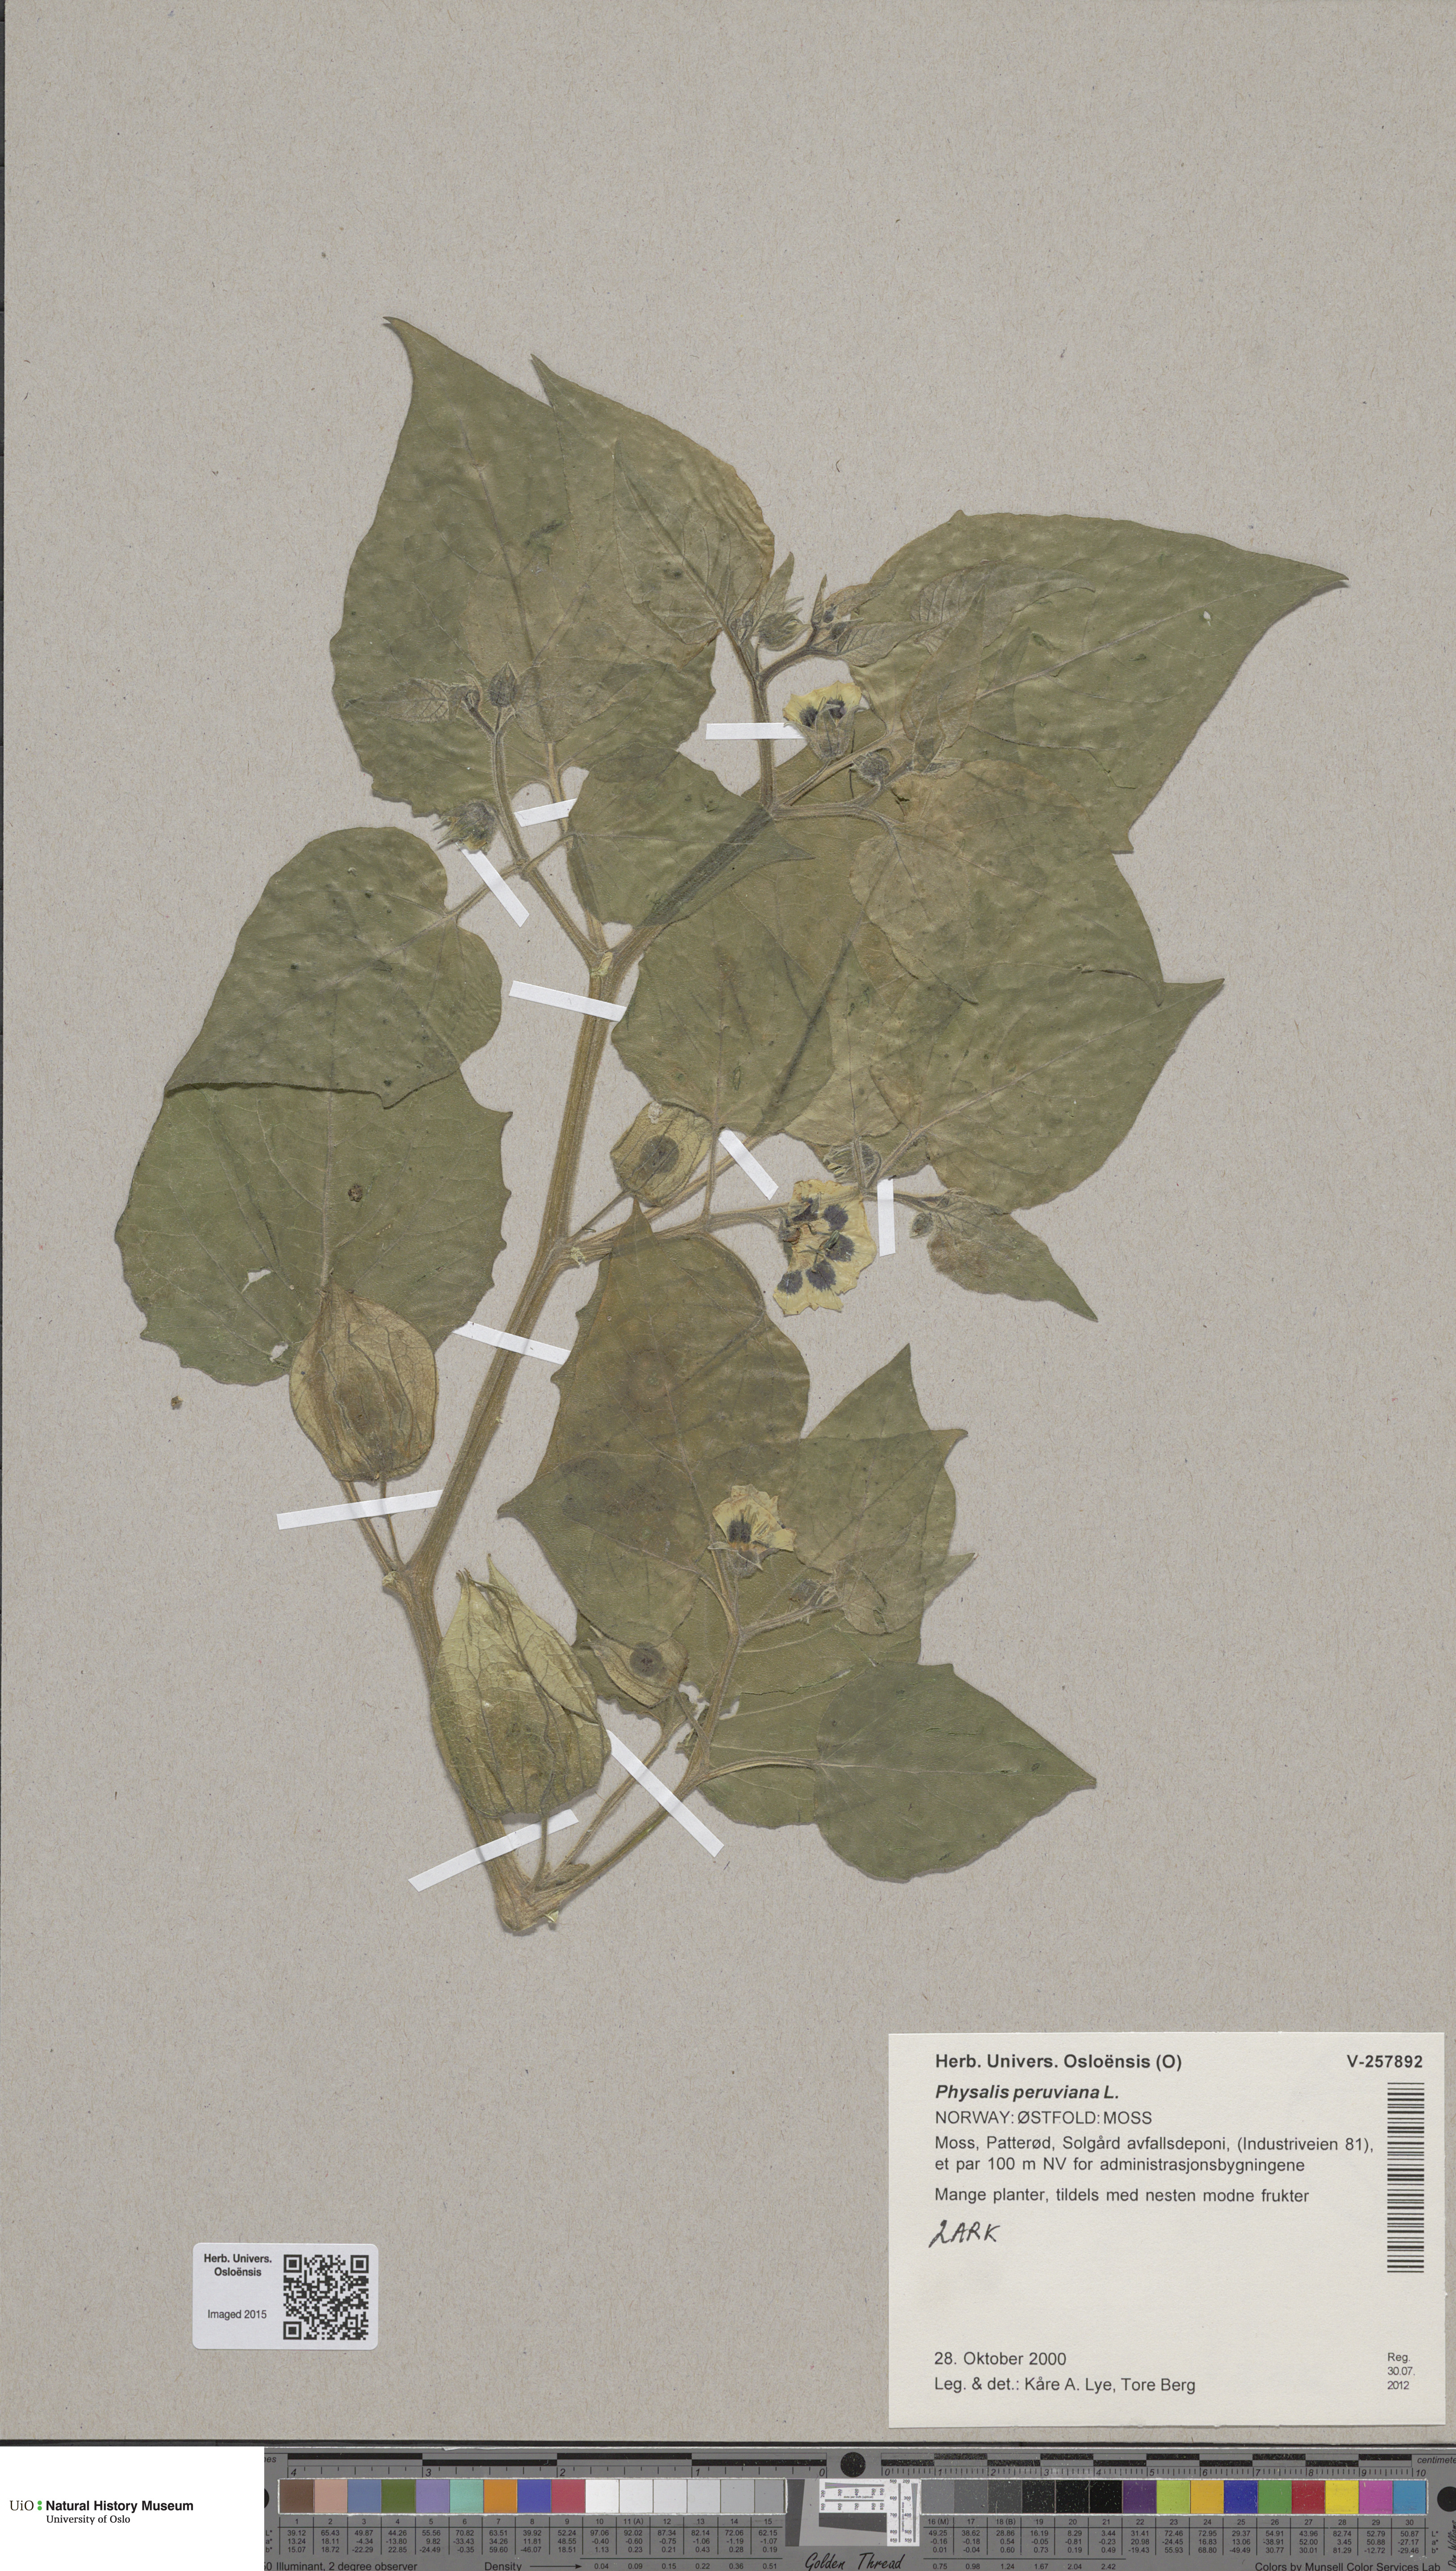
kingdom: Plantae
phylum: Tracheophyta
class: Magnoliopsida
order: Solanales
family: Solanaceae
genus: Physalis
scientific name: Physalis peruviana
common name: Cape-gooseberry
